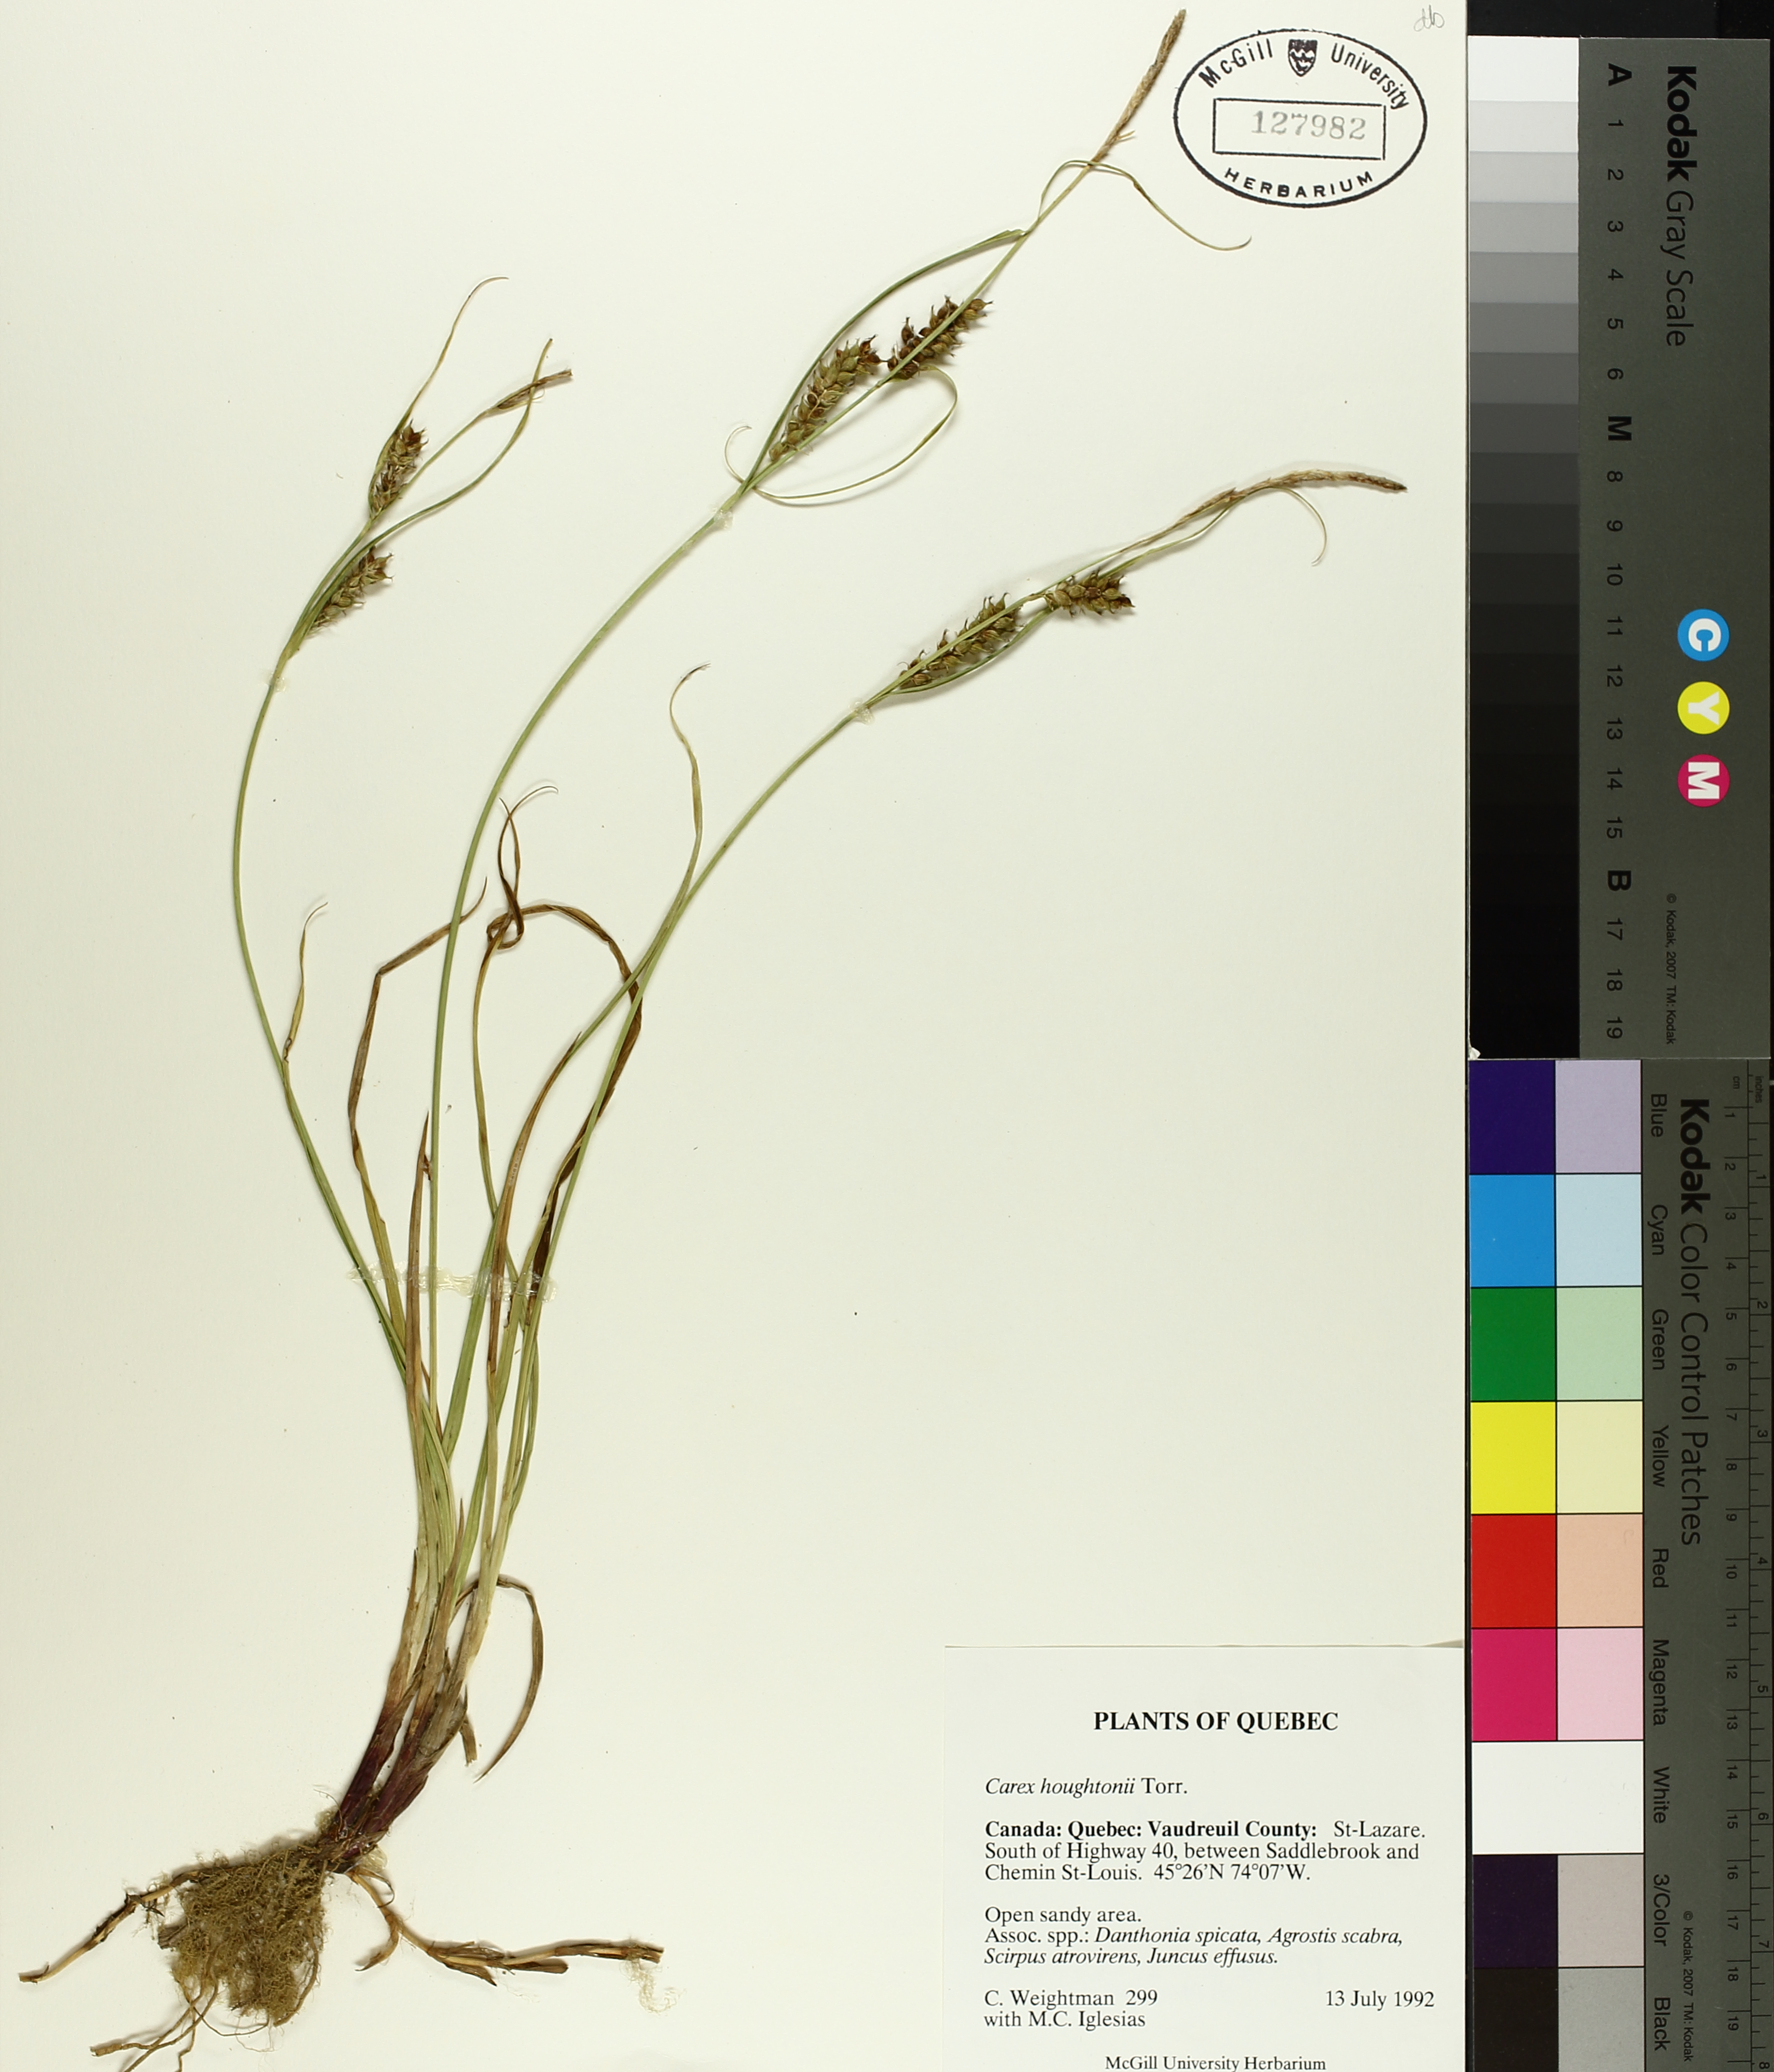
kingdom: Plantae
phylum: Tracheophyta
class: Liliopsida
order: Poales
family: Cyperaceae
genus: Carex
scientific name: Carex houghtoniana
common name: Houghton's sedge
